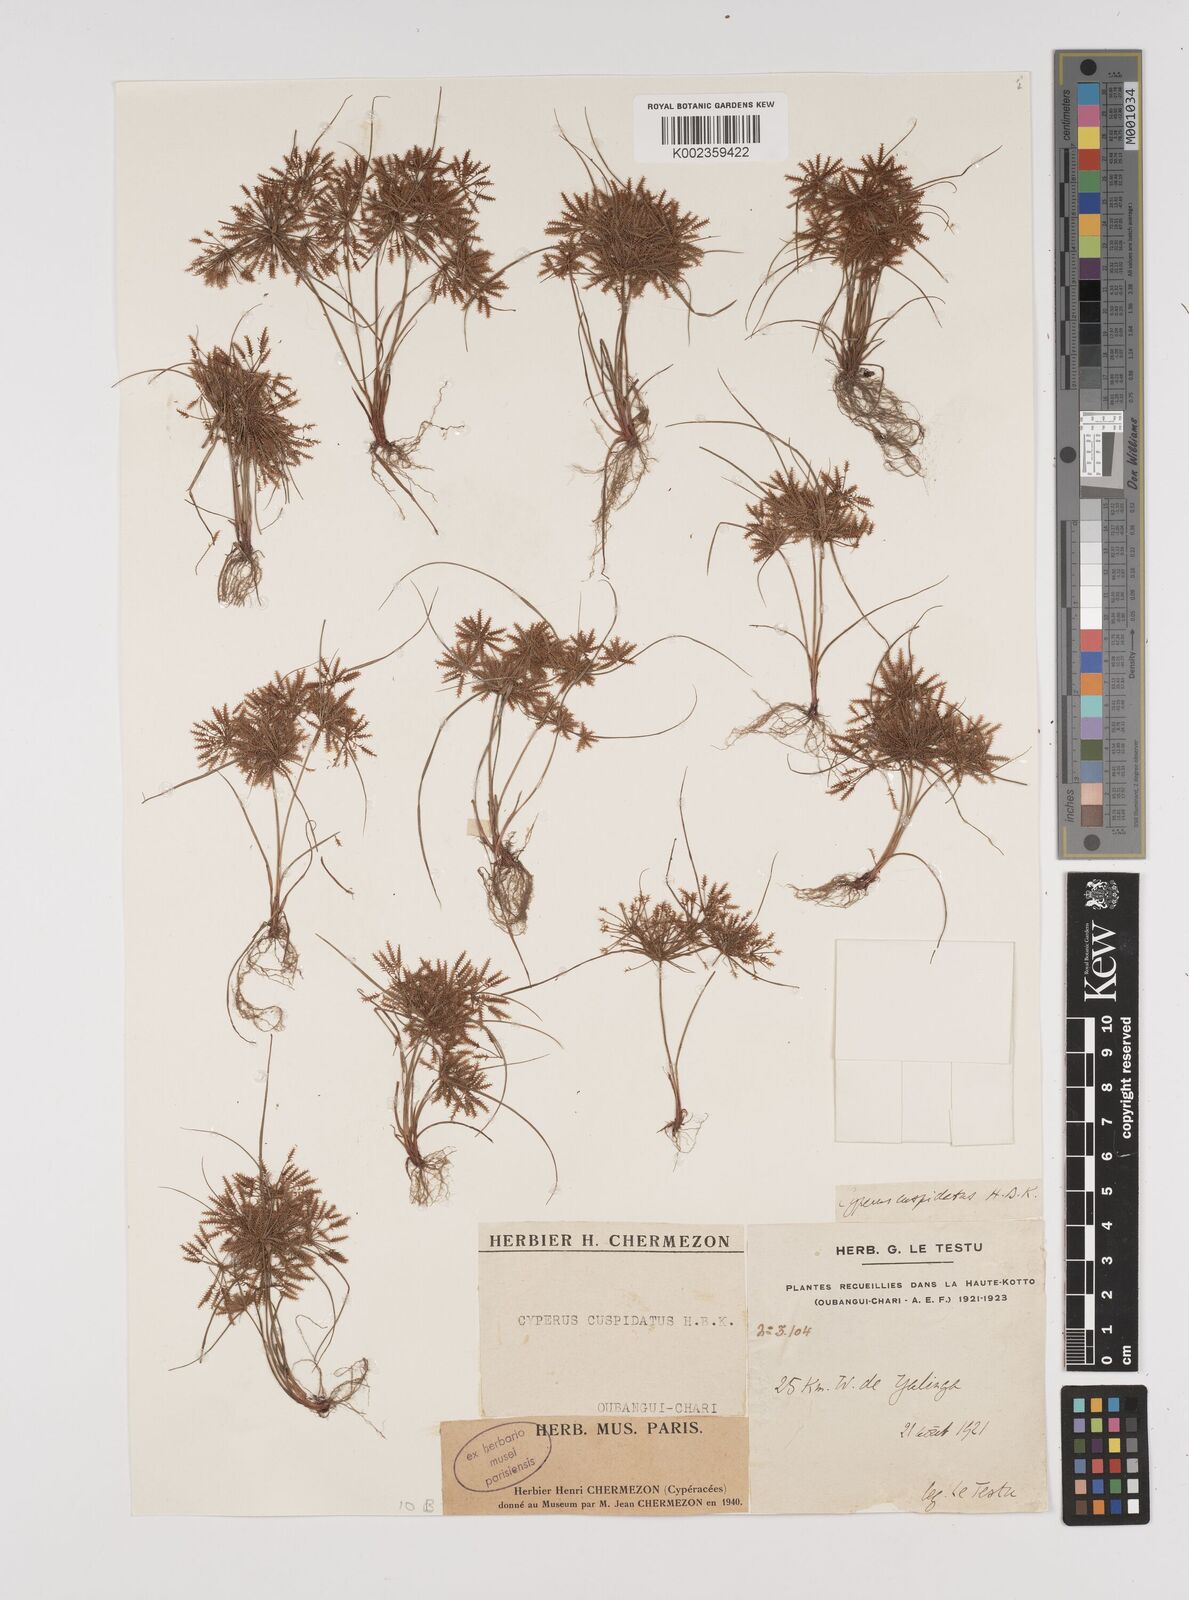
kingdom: Plantae
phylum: Tracheophyta
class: Liliopsida
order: Poales
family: Cyperaceae
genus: Cyperus
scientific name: Cyperus cuspidatus
